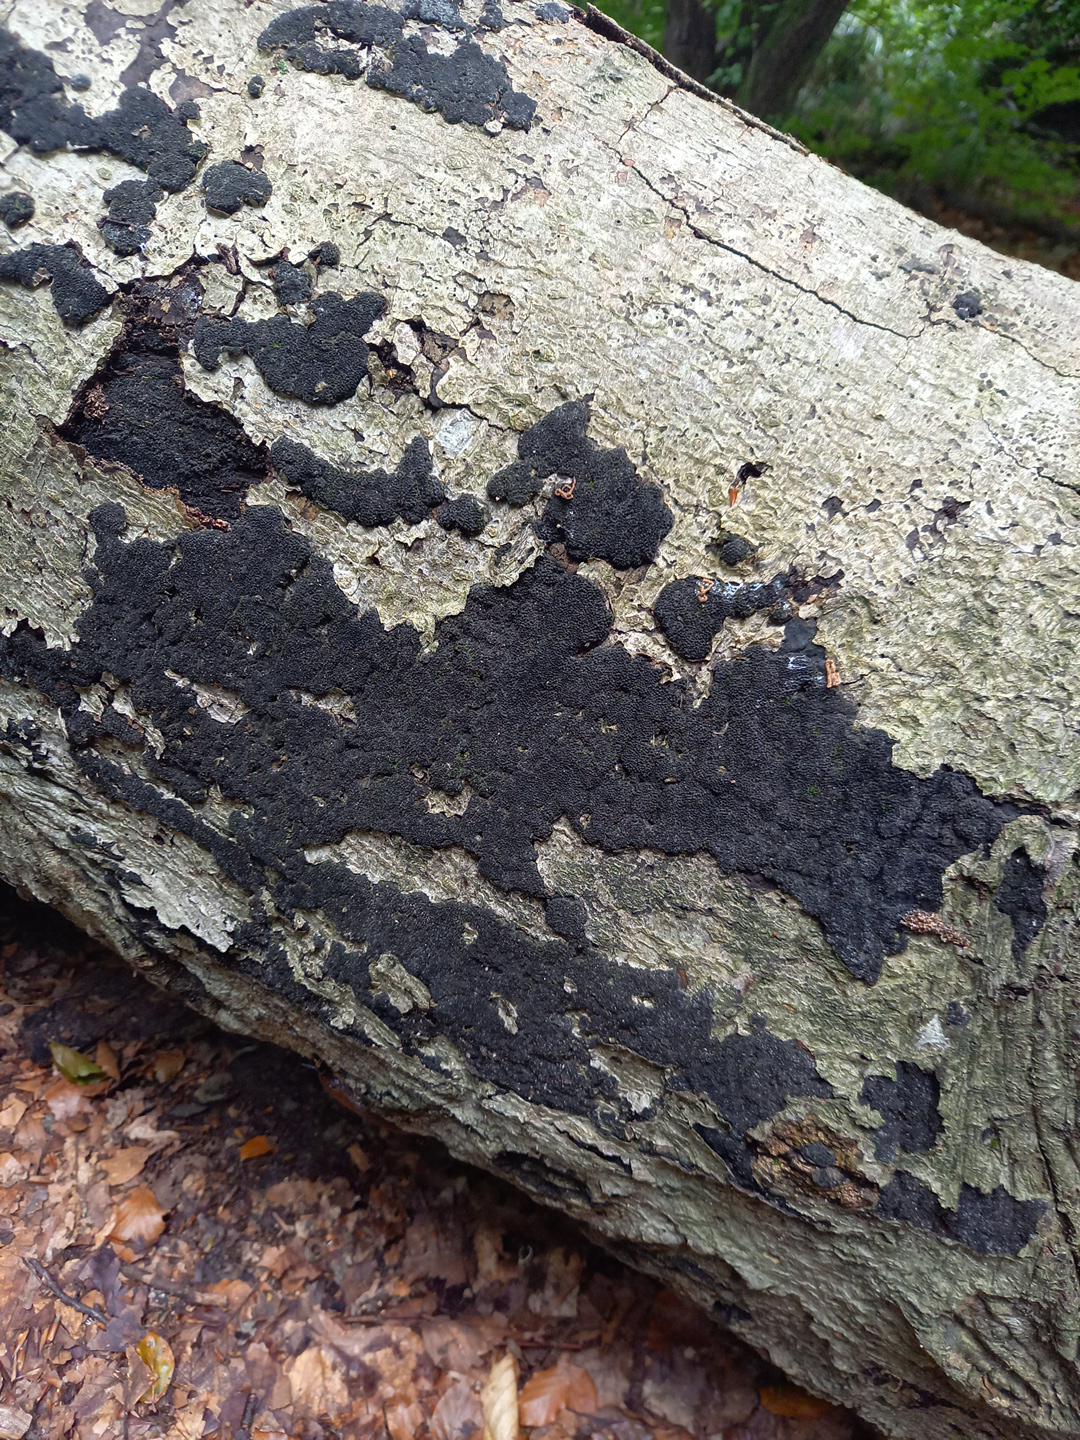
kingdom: Fungi
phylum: Ascomycota
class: Sordariomycetes
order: Xylariales
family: Diatrypaceae
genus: Eutypa
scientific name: Eutypa spinosa
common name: grov kulskorpe
